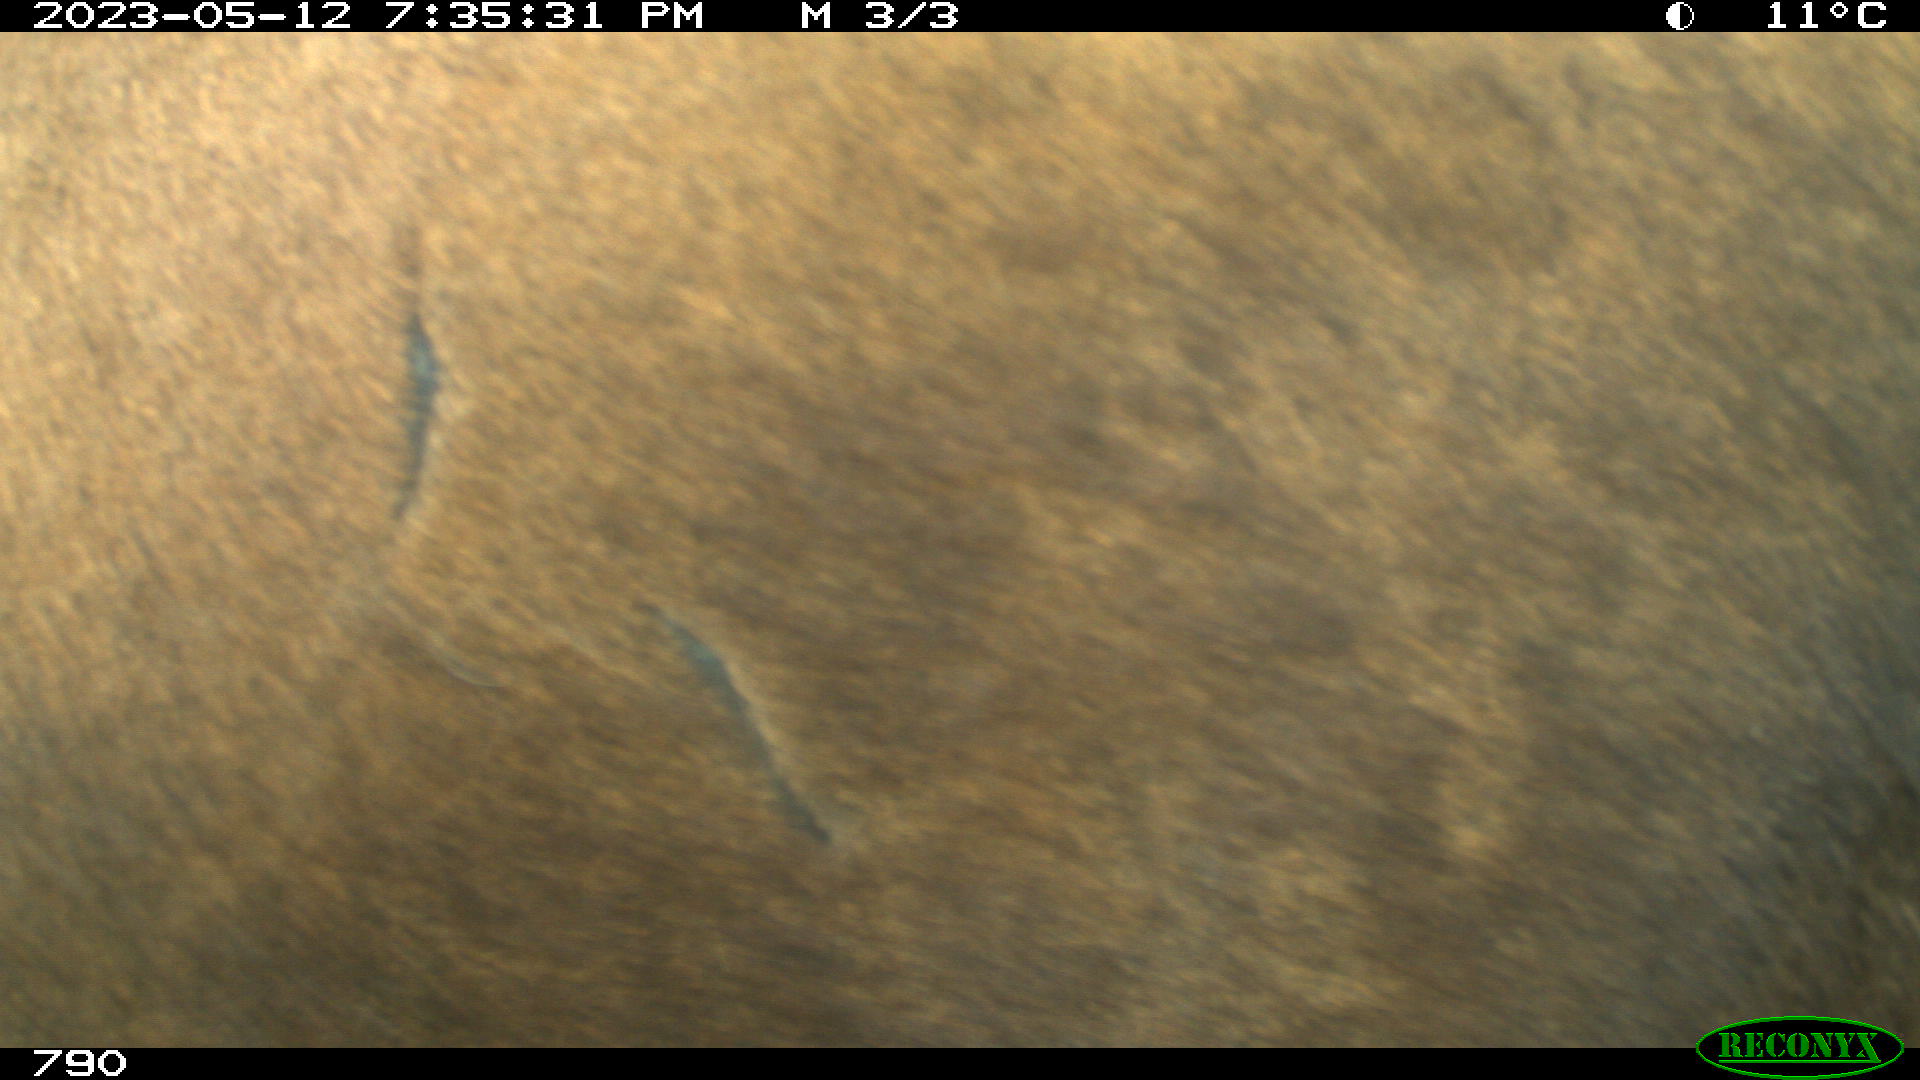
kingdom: Animalia
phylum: Chordata
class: Mammalia
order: Artiodactyla
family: Bovidae
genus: Bos
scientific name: Bos taurus
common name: Domesticated cattle
